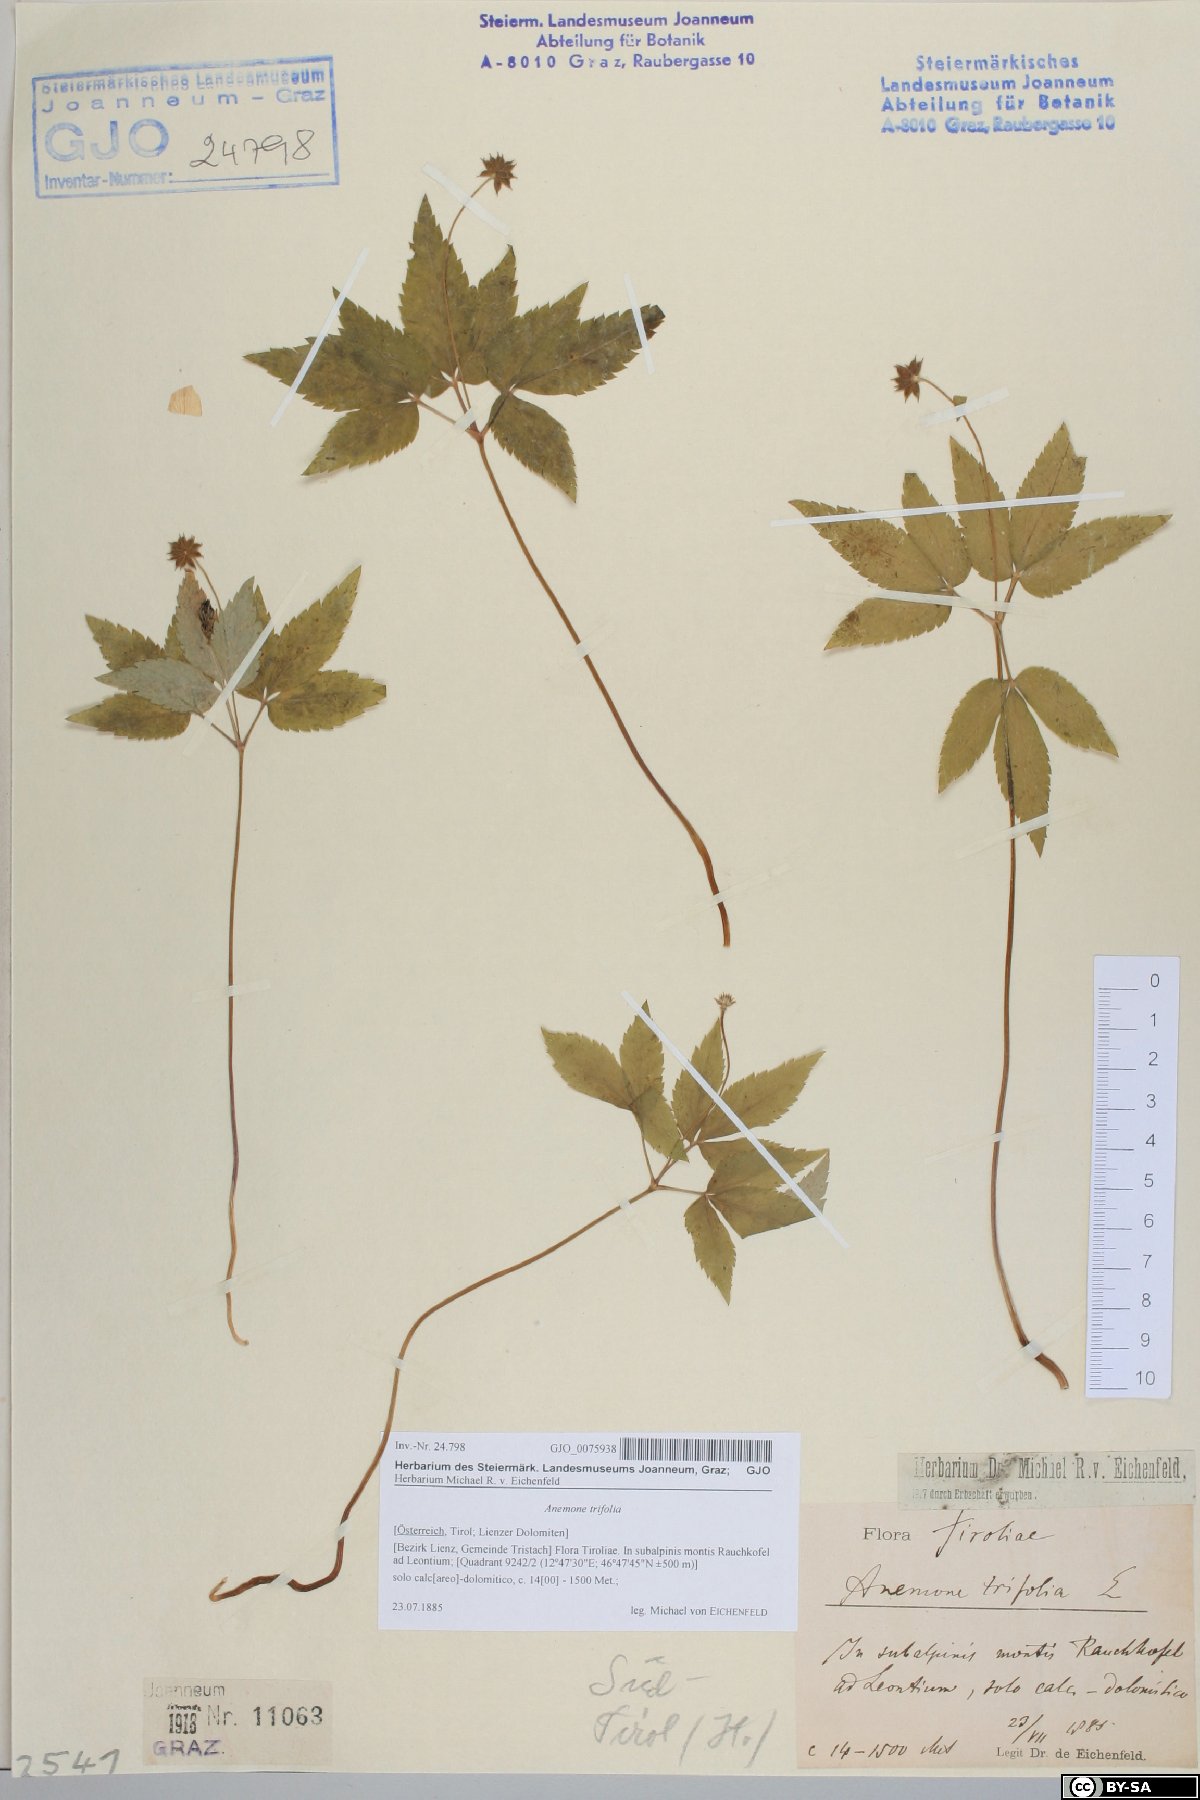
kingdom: Plantae
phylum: Tracheophyta
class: Magnoliopsida
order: Ranunculales
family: Ranunculaceae
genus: Anemone
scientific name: Anemone trifolia
